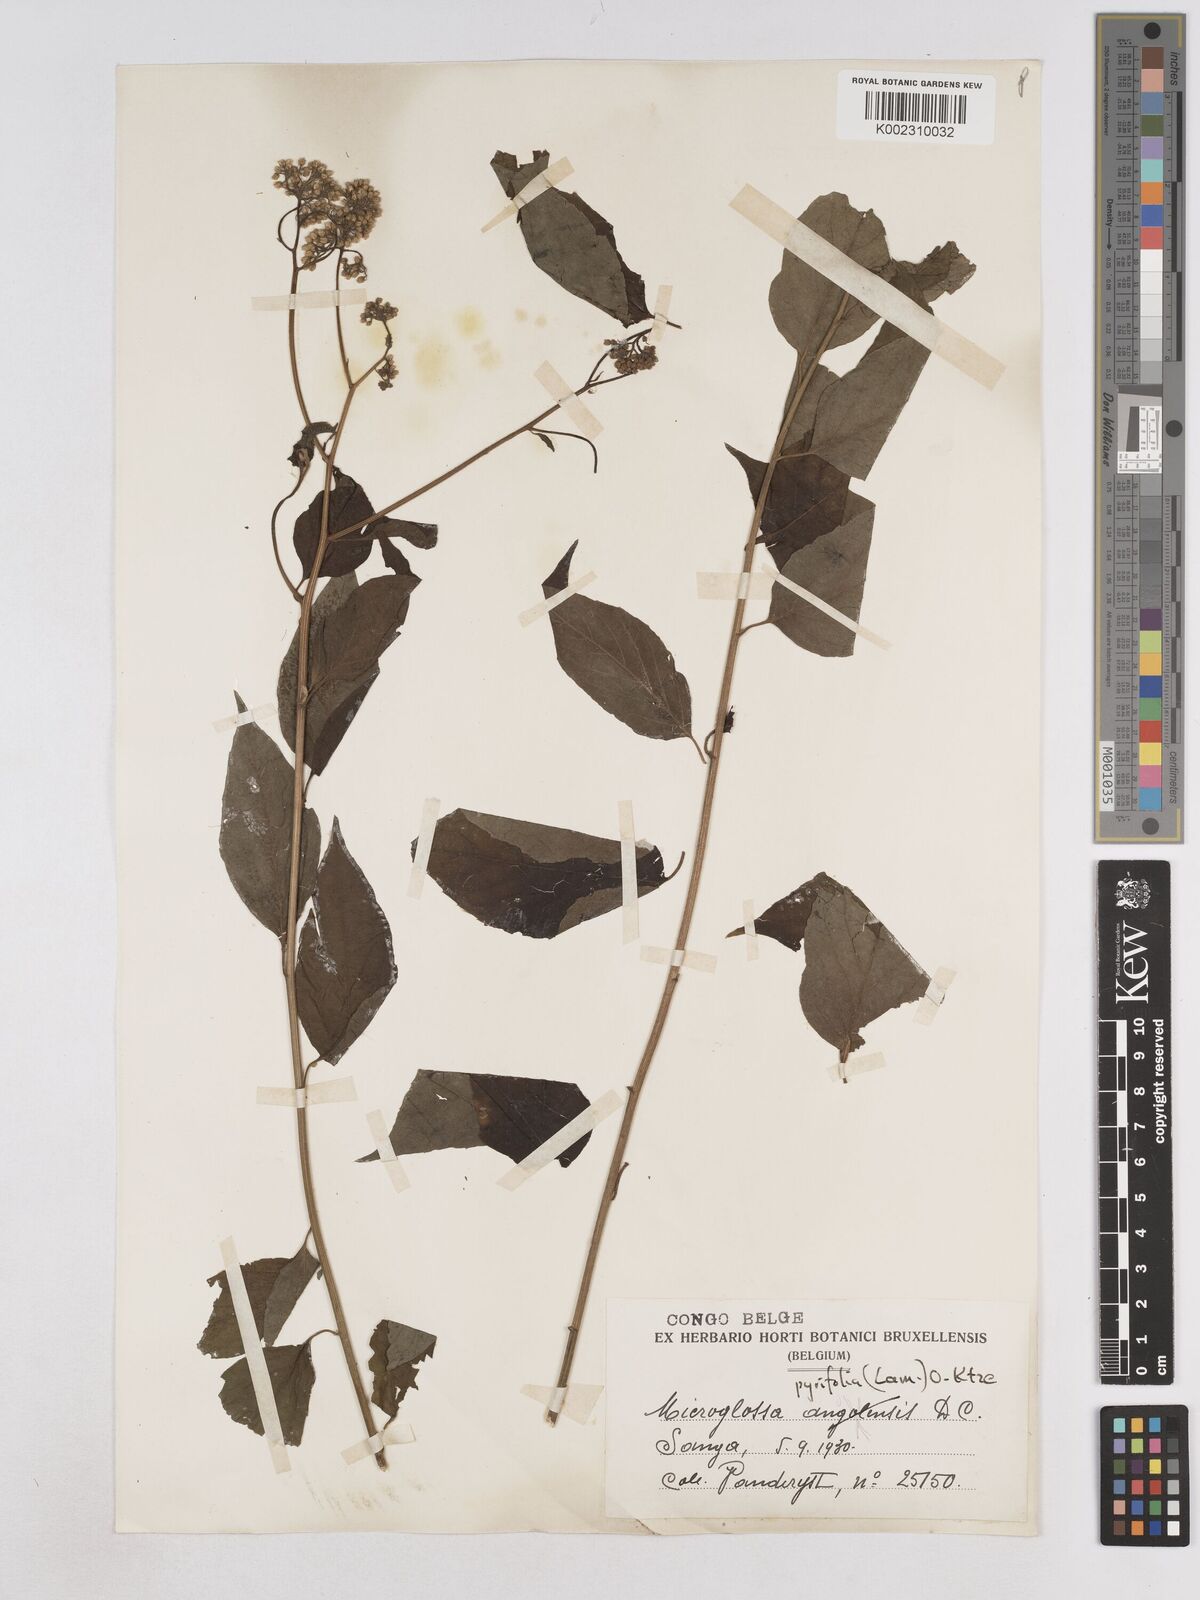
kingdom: Plantae
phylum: Tracheophyta
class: Magnoliopsida
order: Asterales
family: Asteraceae
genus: Microglossa
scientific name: Microglossa pyrifolia
